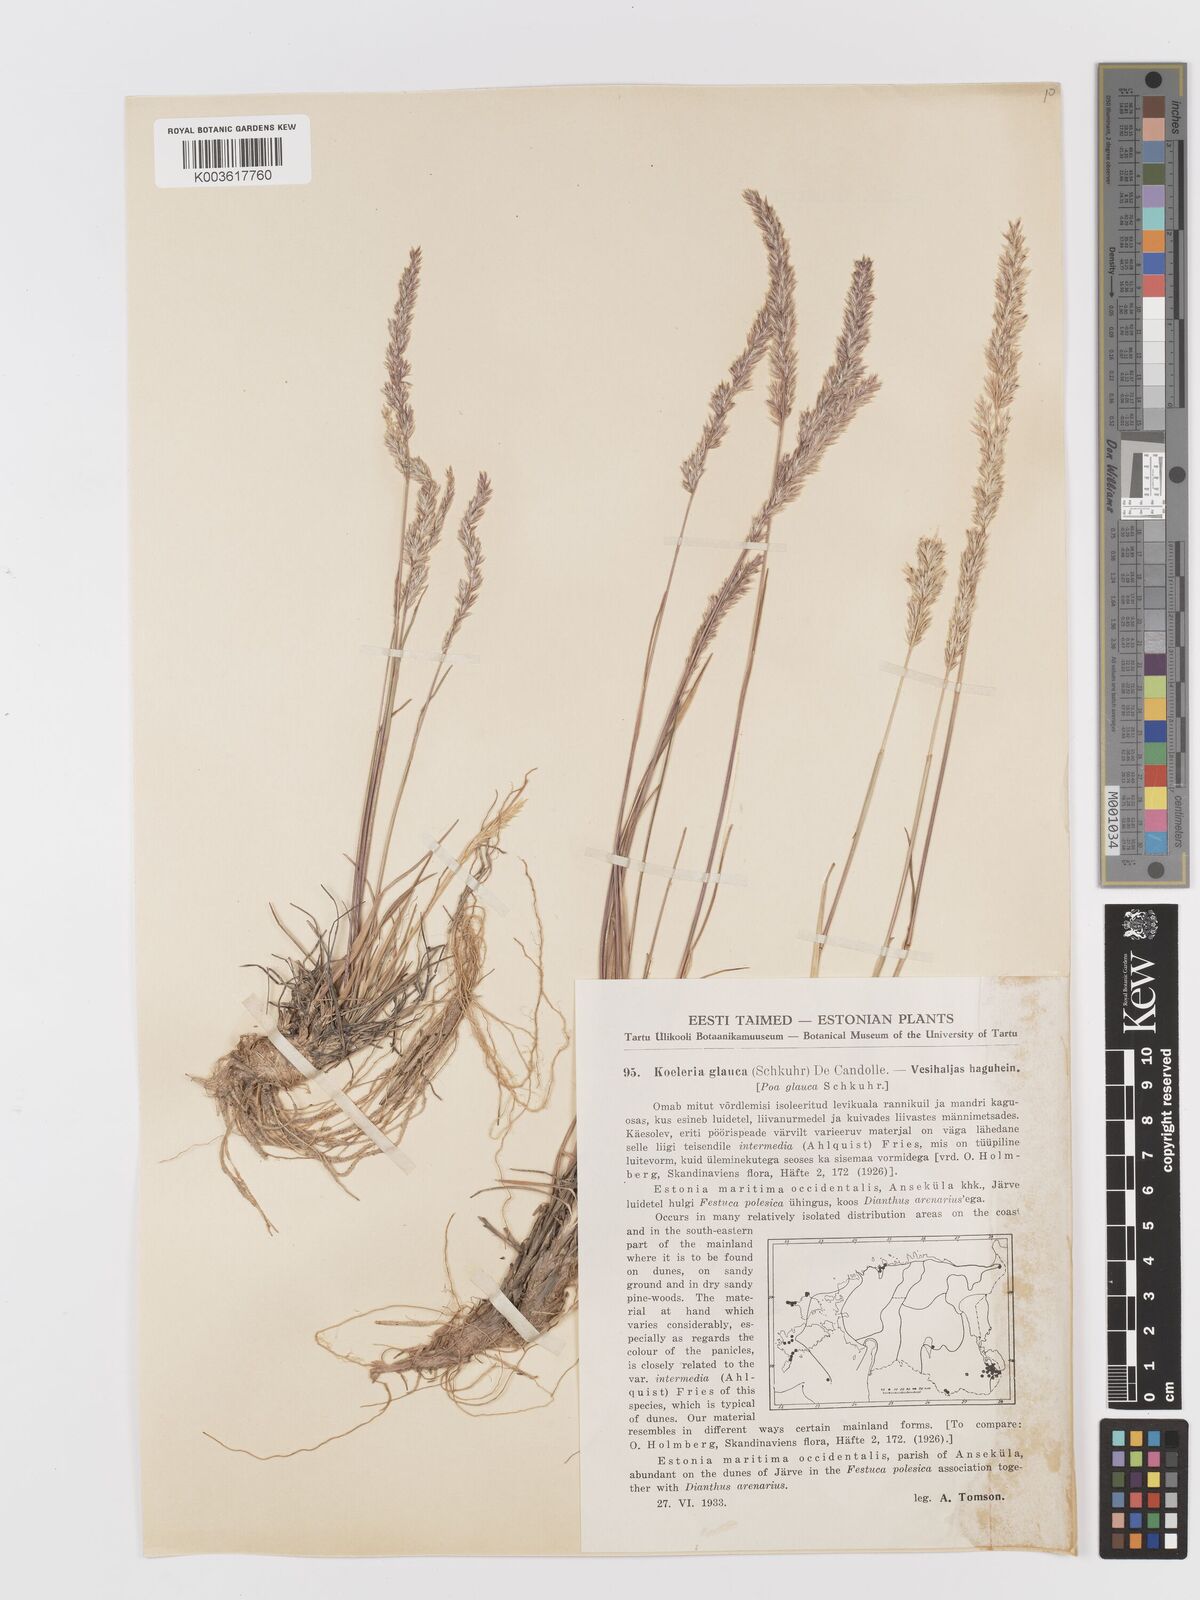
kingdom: Plantae
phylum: Tracheophyta
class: Liliopsida
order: Poales
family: Poaceae
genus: Koeleria
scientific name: Koeleria glauca
